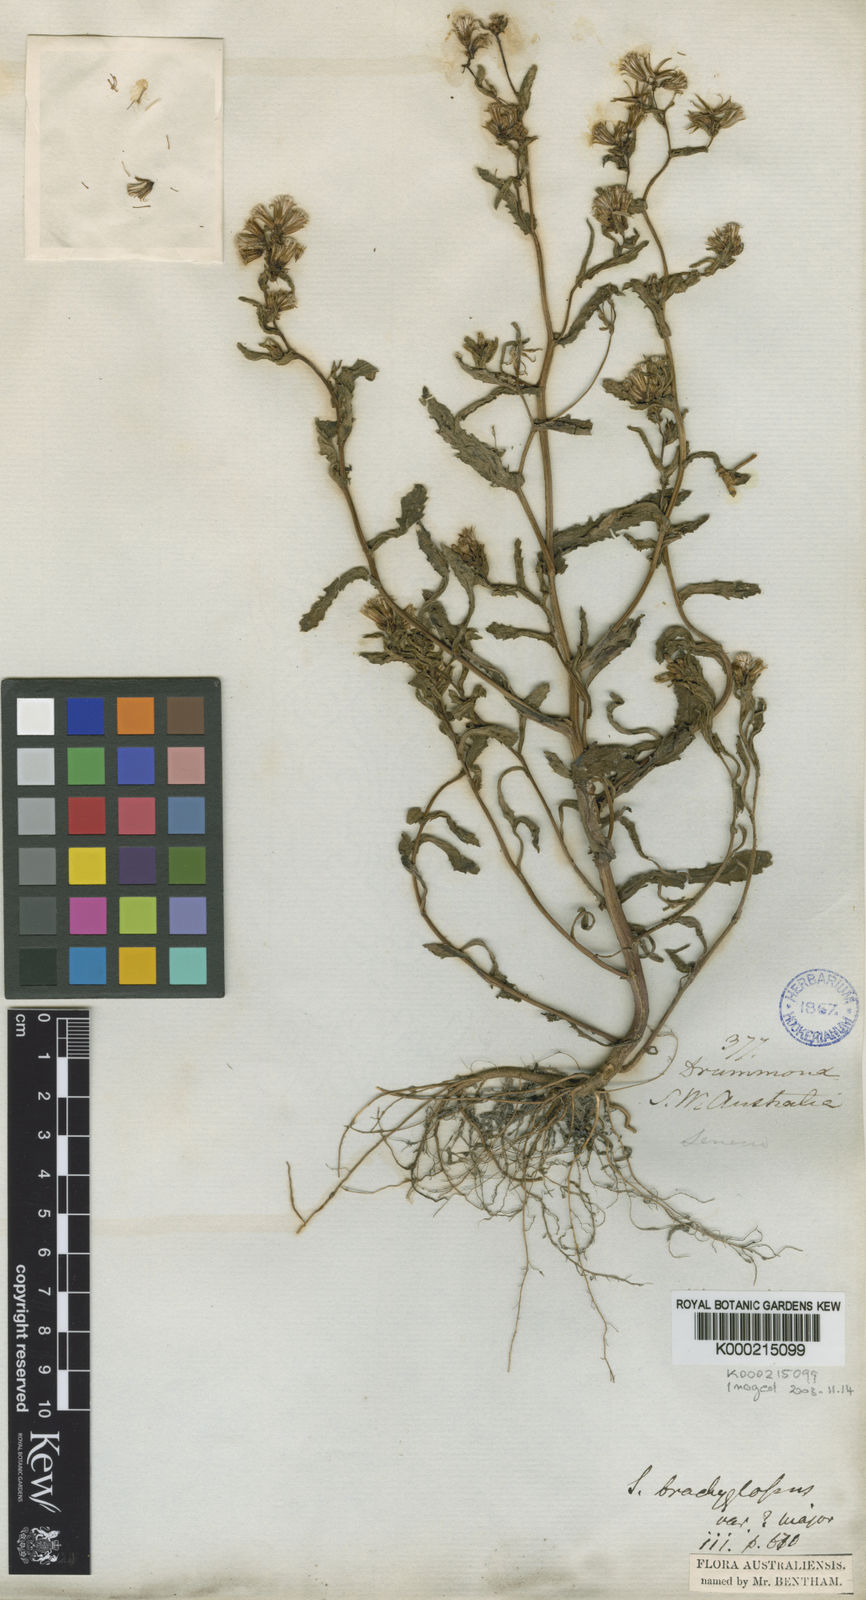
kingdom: Plantae
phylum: Tracheophyta
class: Magnoliopsida
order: Asterales
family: Asteraceae
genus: Senecio
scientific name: Senecio glossanthus
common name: Slender groundsel
